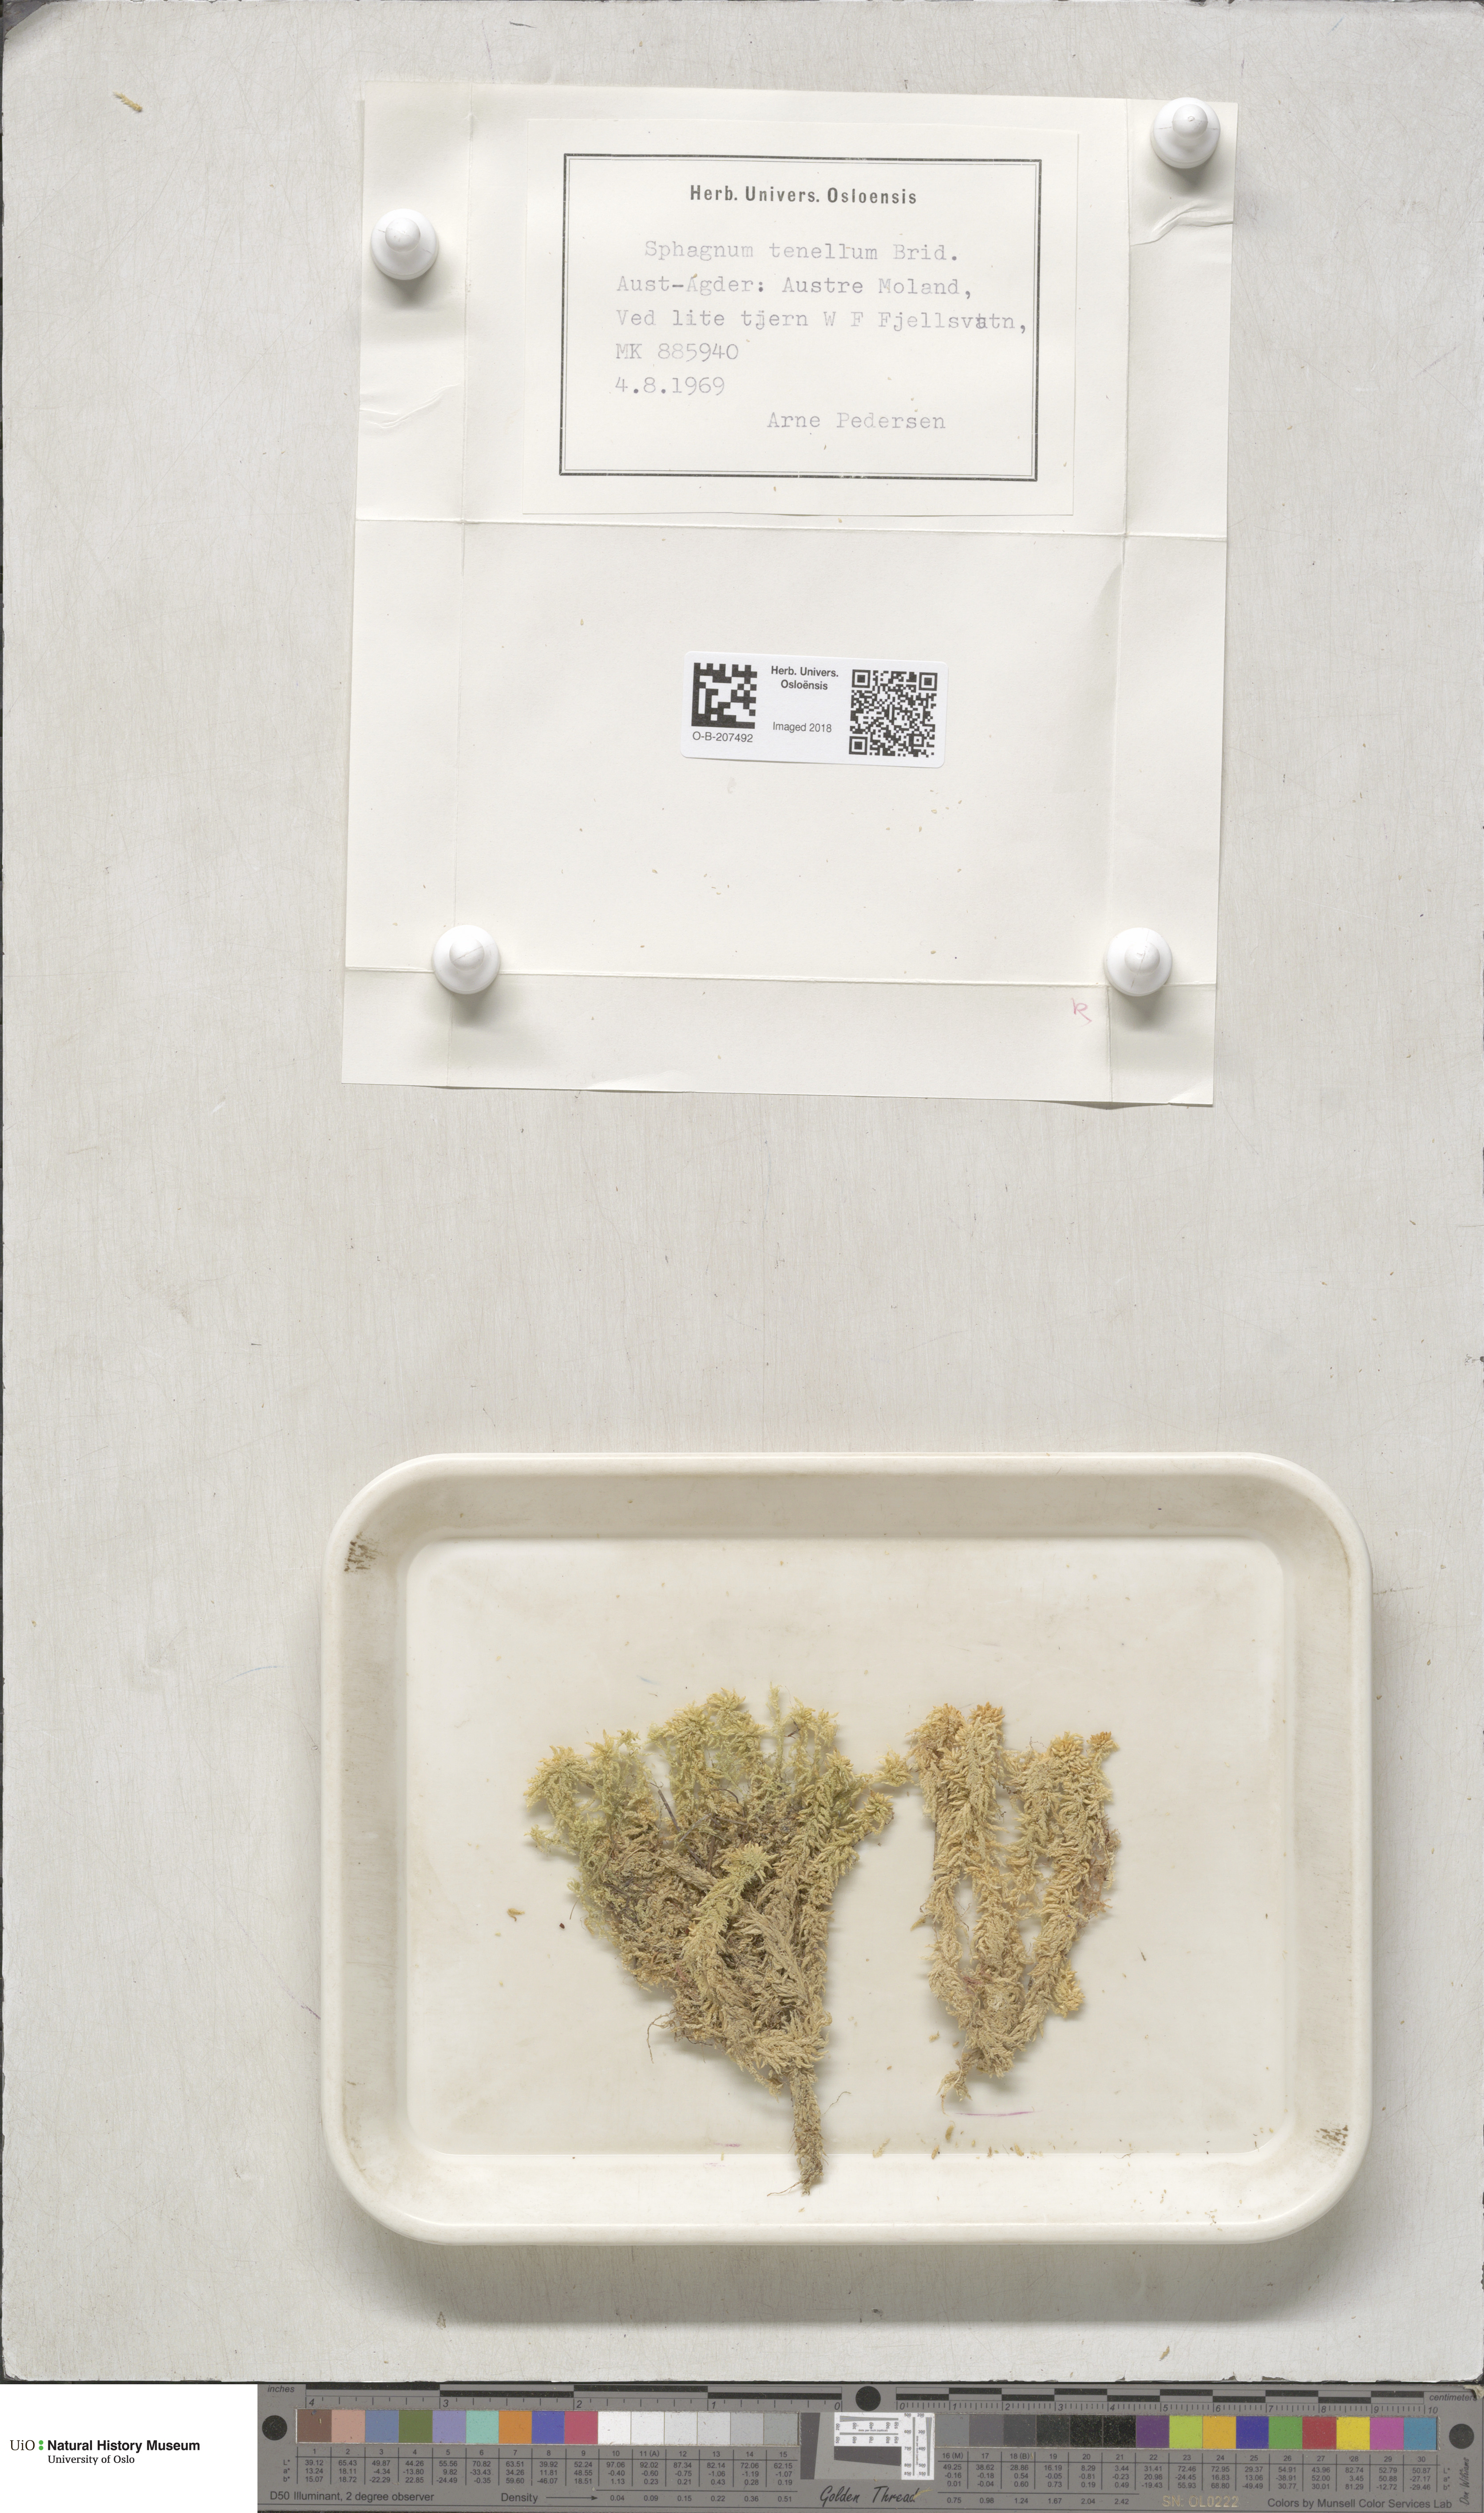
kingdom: Plantae
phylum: Bryophyta
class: Sphagnopsida
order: Sphagnales
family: Sphagnaceae
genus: Sphagnum
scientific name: Sphagnum tenellum
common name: Soft bog-moss
